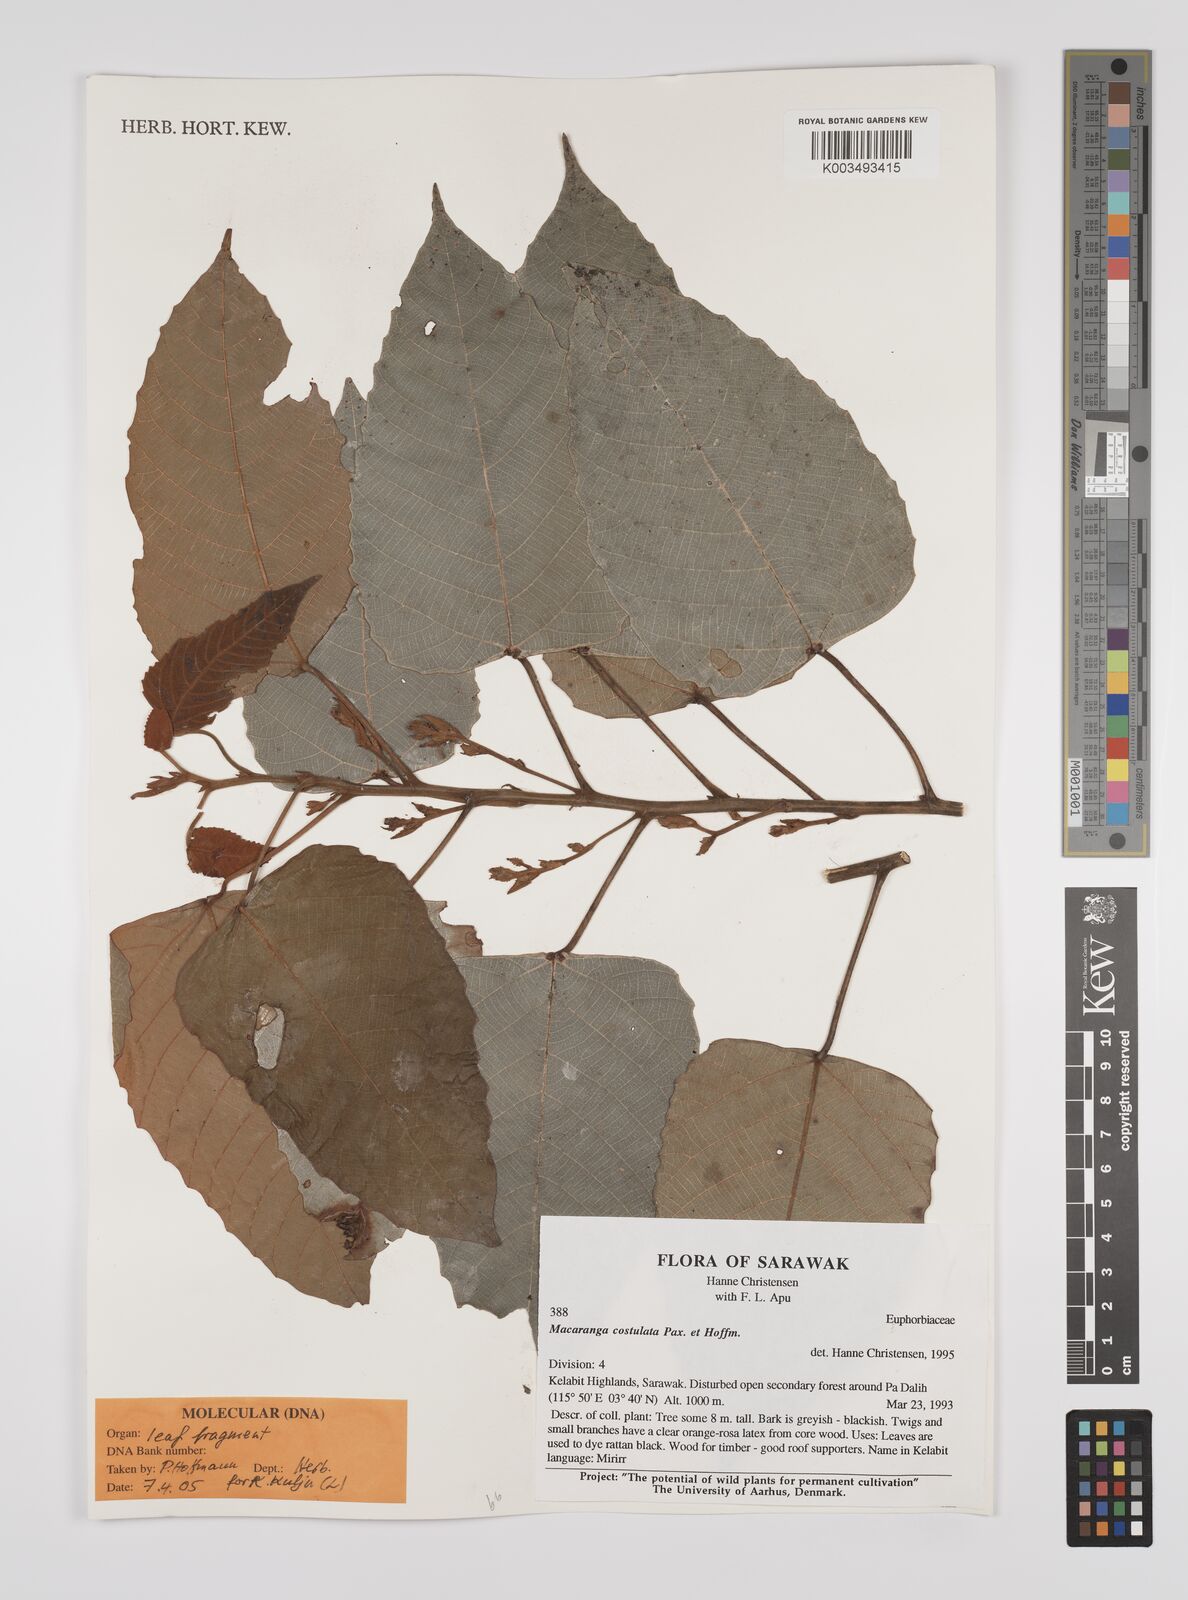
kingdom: Plantae
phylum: Tracheophyta
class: Magnoliopsida
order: Malpighiales
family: Euphorbiaceae
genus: Macaranga
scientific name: Macaranga costulata
